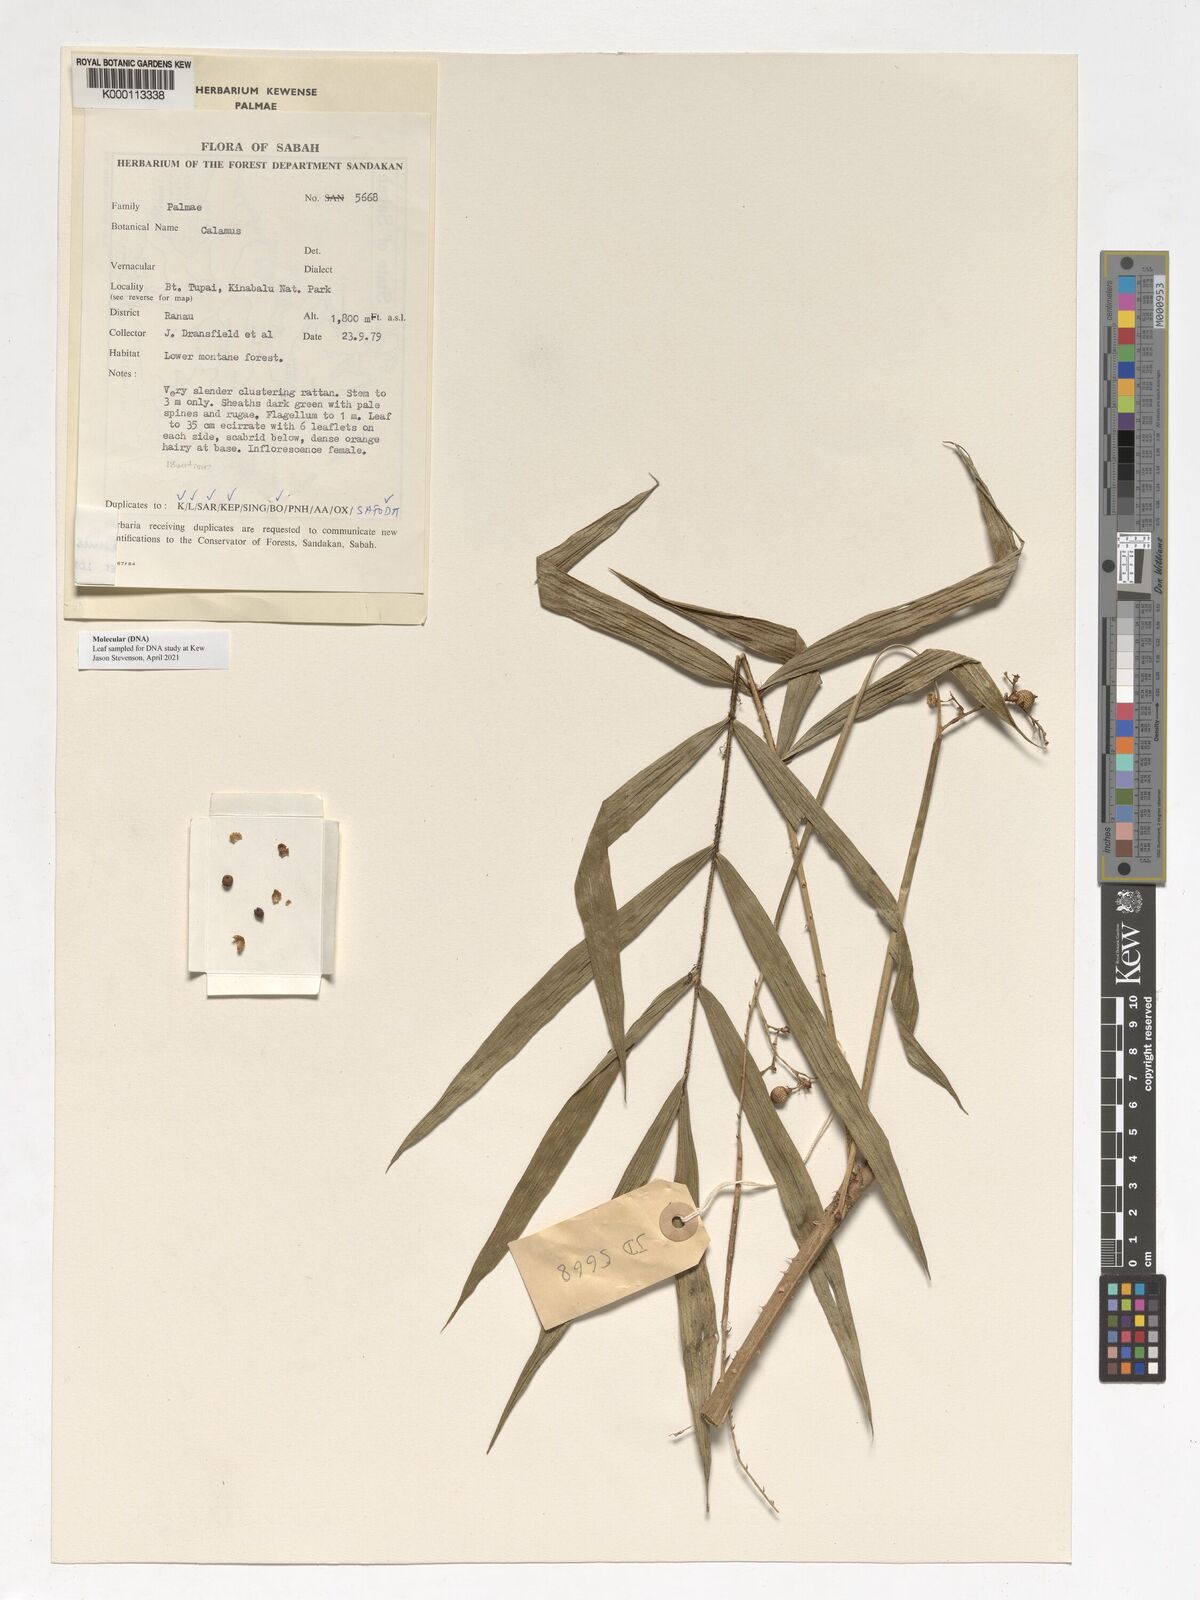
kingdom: Plantae
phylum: Tracheophyta
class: Liliopsida
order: Arecales
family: Arecaceae
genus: Calamus
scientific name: Calamus gibbsianus
